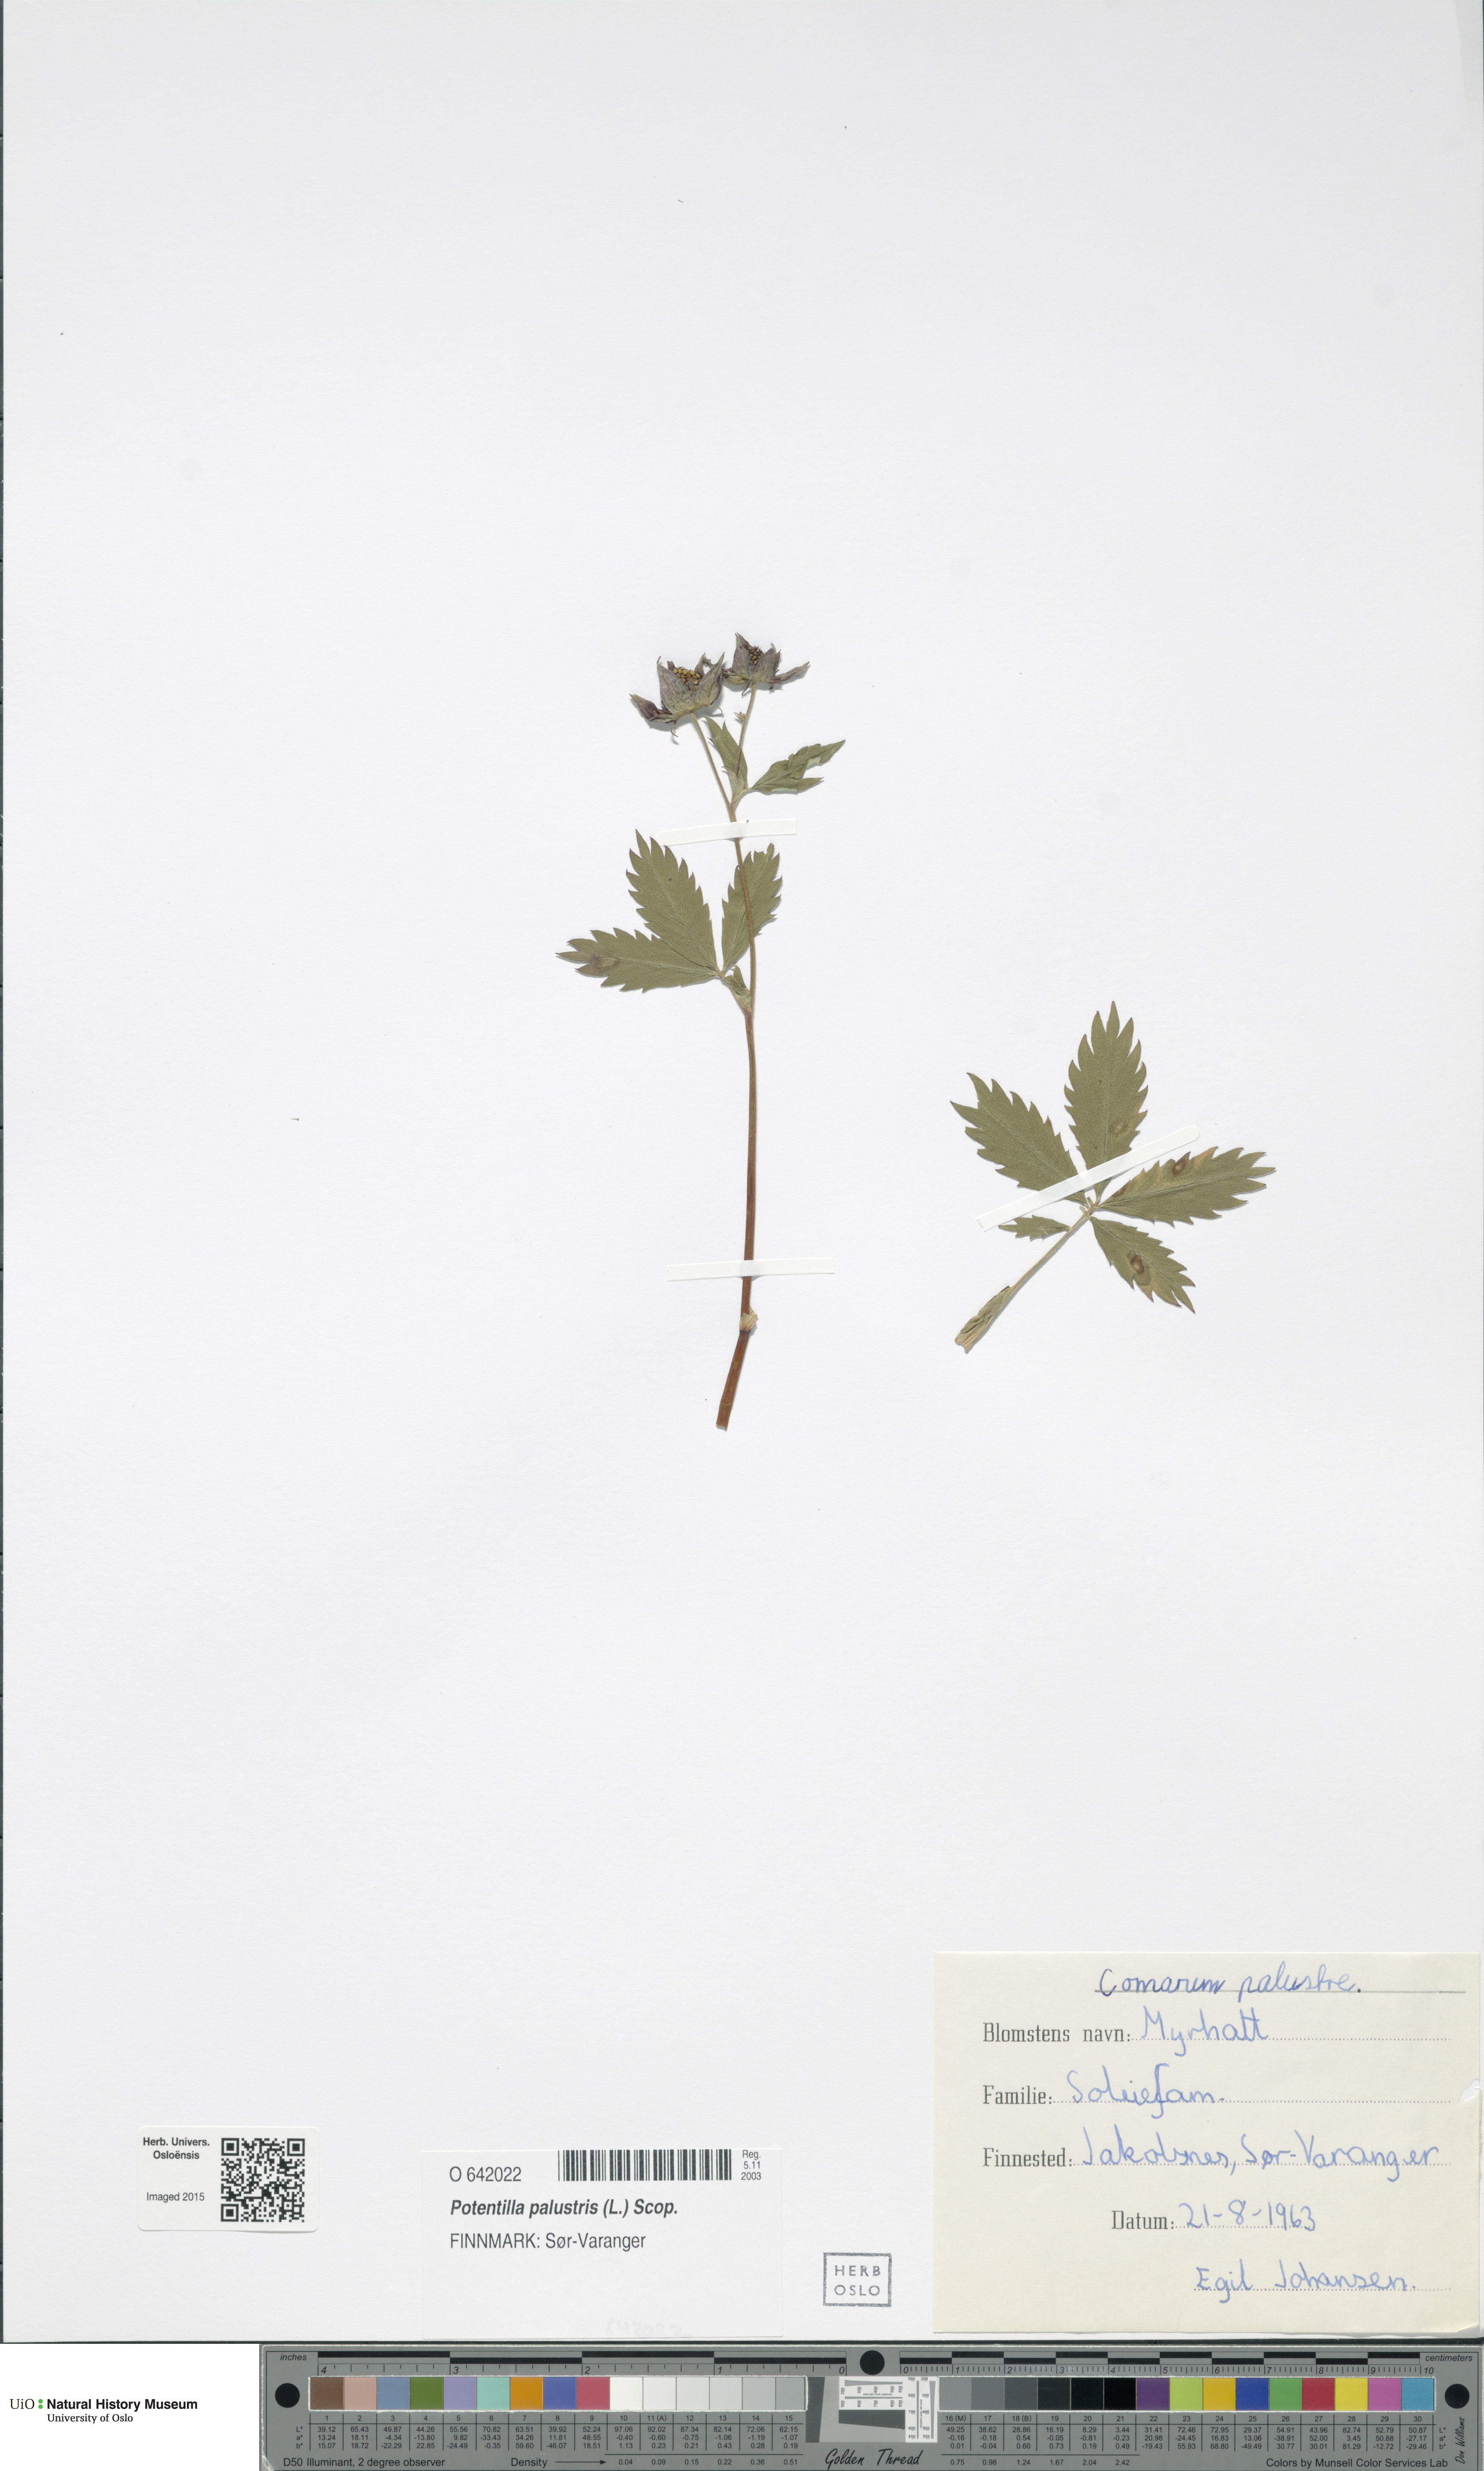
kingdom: Plantae
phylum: Tracheophyta
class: Magnoliopsida
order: Rosales
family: Rosaceae
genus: Comarum
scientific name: Comarum palustre
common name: Marsh cinquefoil
